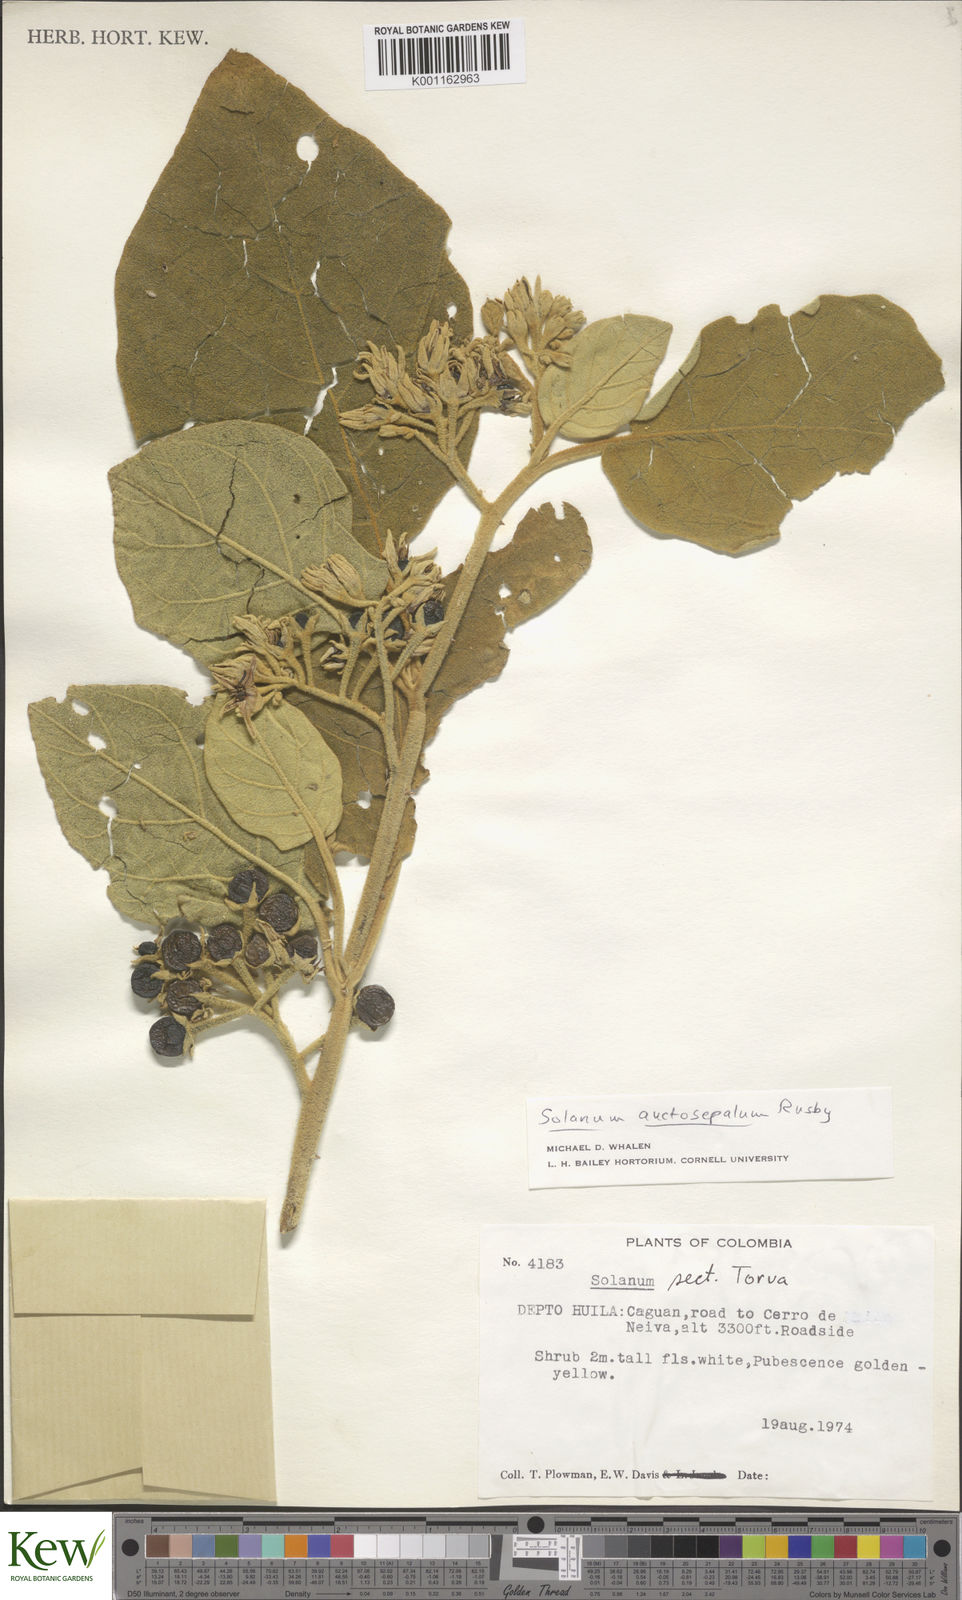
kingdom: Plantae
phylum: Tracheophyta
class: Magnoliopsida
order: Solanales
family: Solanaceae
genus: Solanum
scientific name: Solanum stellatiglandulosum
